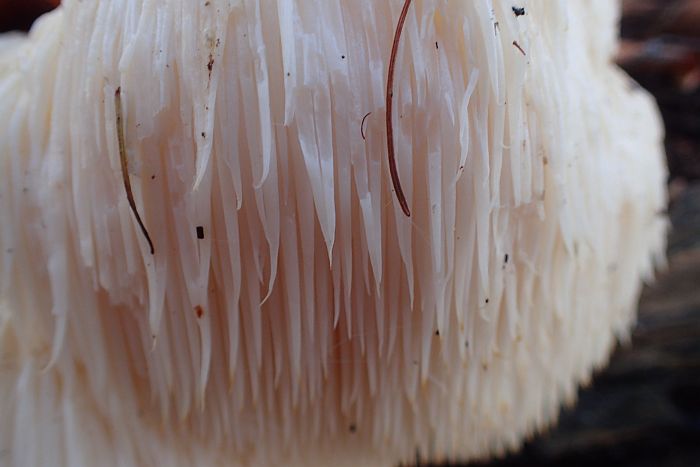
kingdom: Fungi
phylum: Basidiomycota
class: Agaricomycetes
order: Russulales
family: Hericiaceae
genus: Hericium
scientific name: Hericium erinaceus
